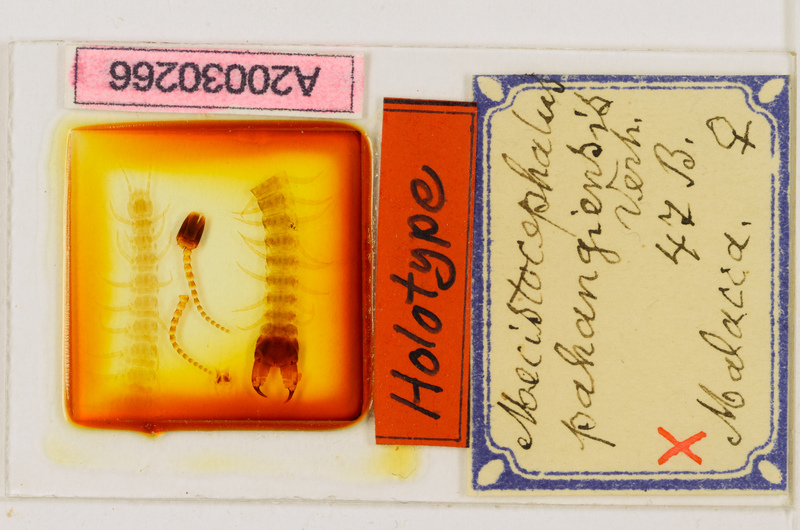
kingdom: Animalia
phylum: Arthropoda
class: Chilopoda
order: Geophilomorpha
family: Mecistocephalidae
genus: Mecistocephalus
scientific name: Mecistocephalus pahangiensis
